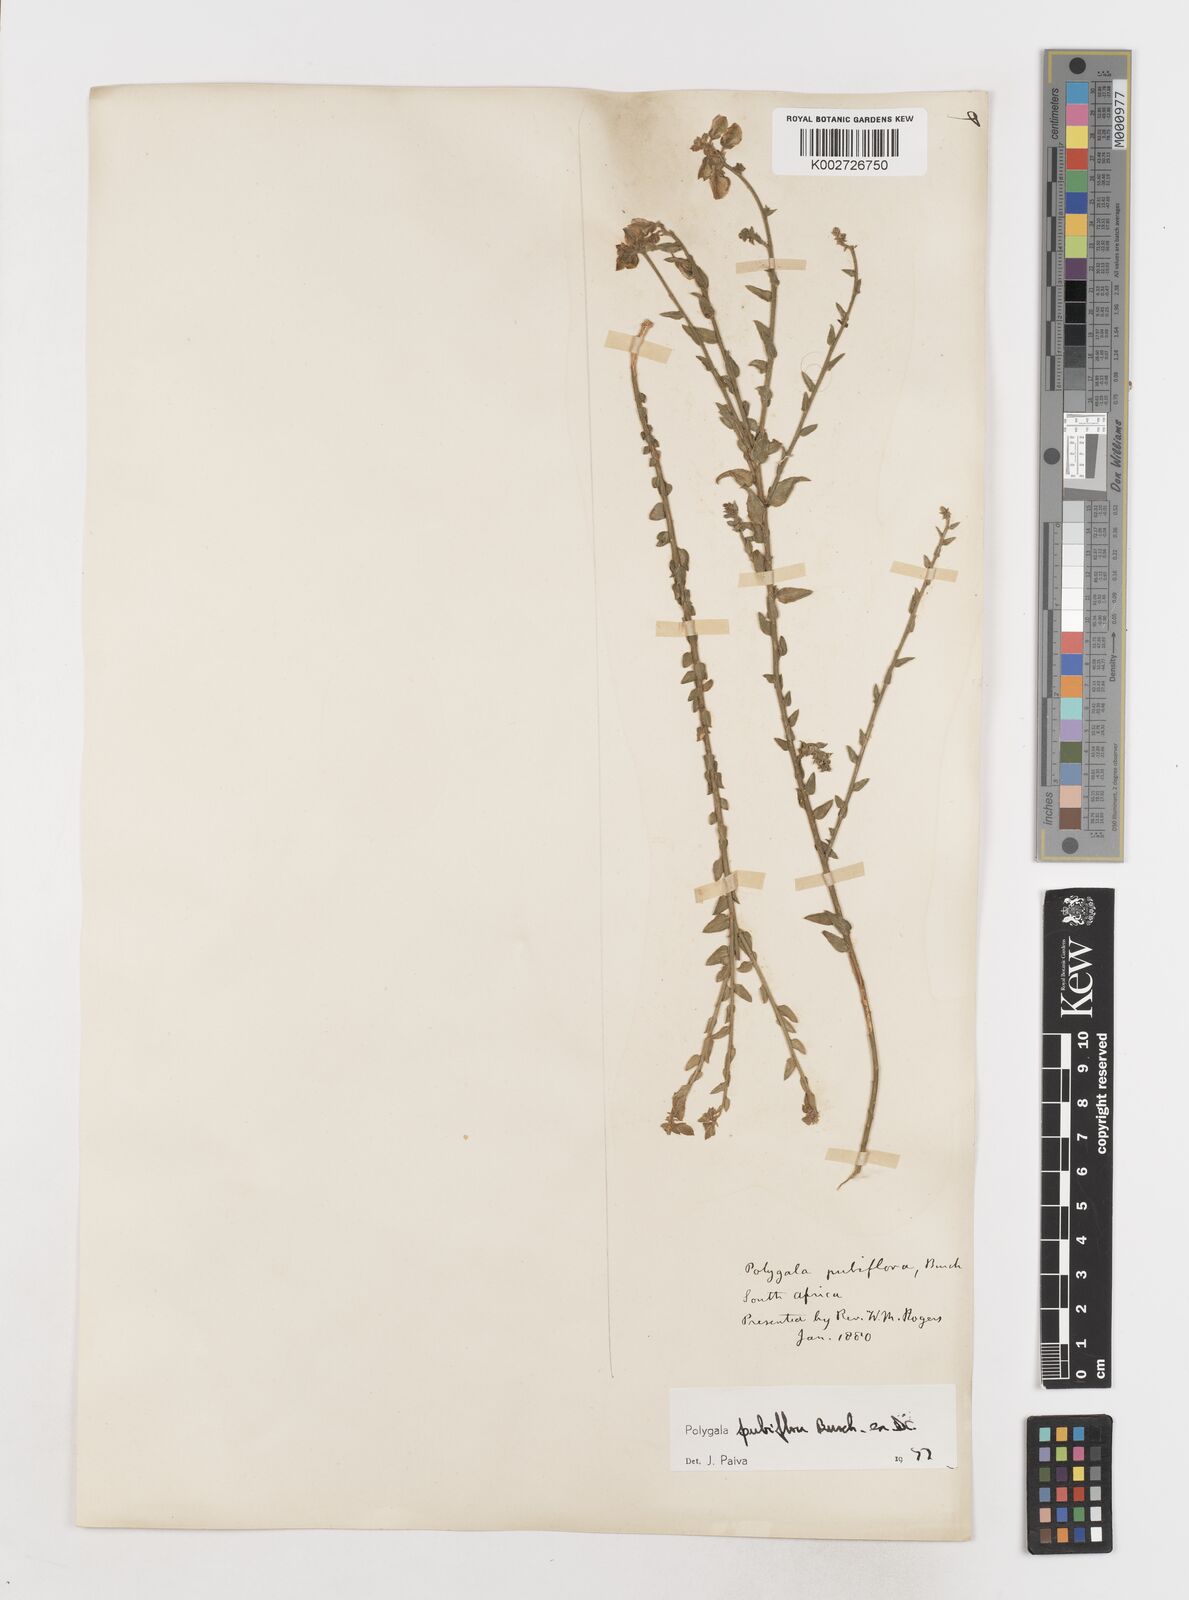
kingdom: Plantae
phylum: Tracheophyta
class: Magnoliopsida
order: Fabales
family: Polygalaceae
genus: Polygala
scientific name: Polygala pubiflora
